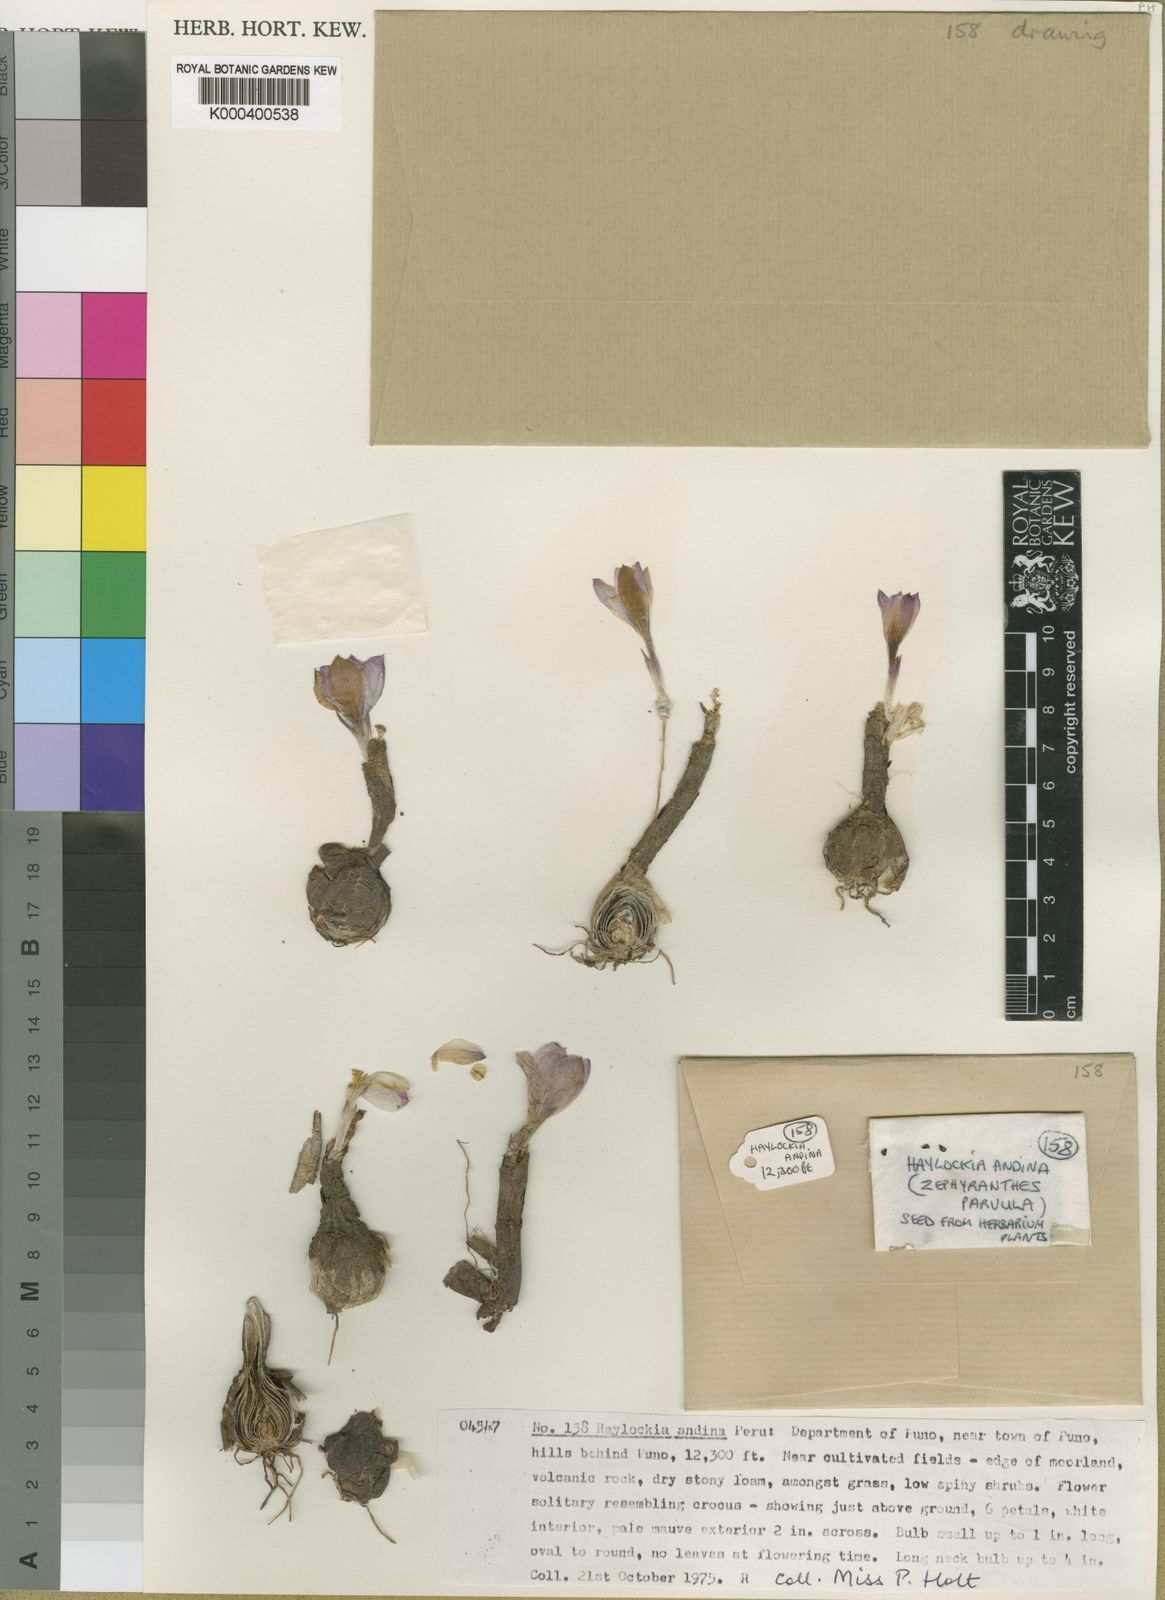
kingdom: Plantae
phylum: Tracheophyta
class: Liliopsida
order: Asparagales
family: Amaryllidaceae
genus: Zephyranthes
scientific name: Zephyranthes andina
